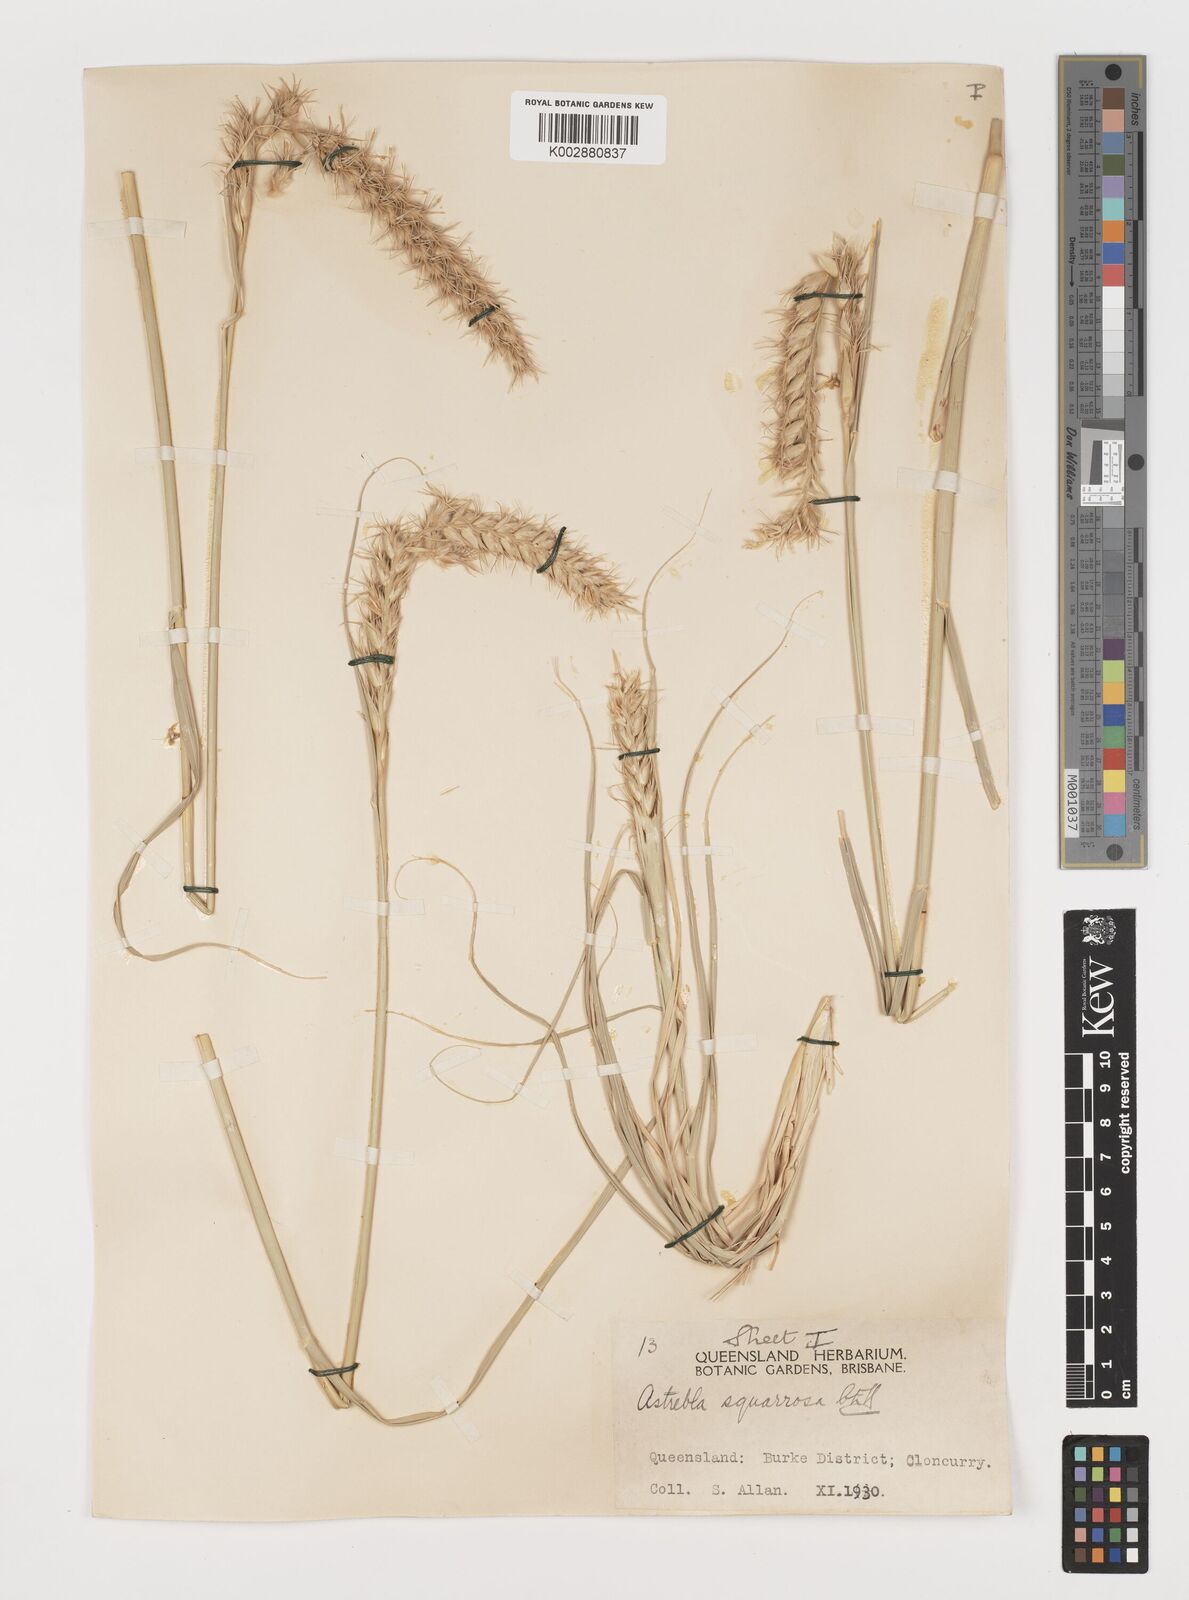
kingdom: Plantae
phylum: Tracheophyta
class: Liliopsida
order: Poales
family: Poaceae
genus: Astrebla
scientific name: Astrebla squarrosa
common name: Wheat-ear mitchell grass
